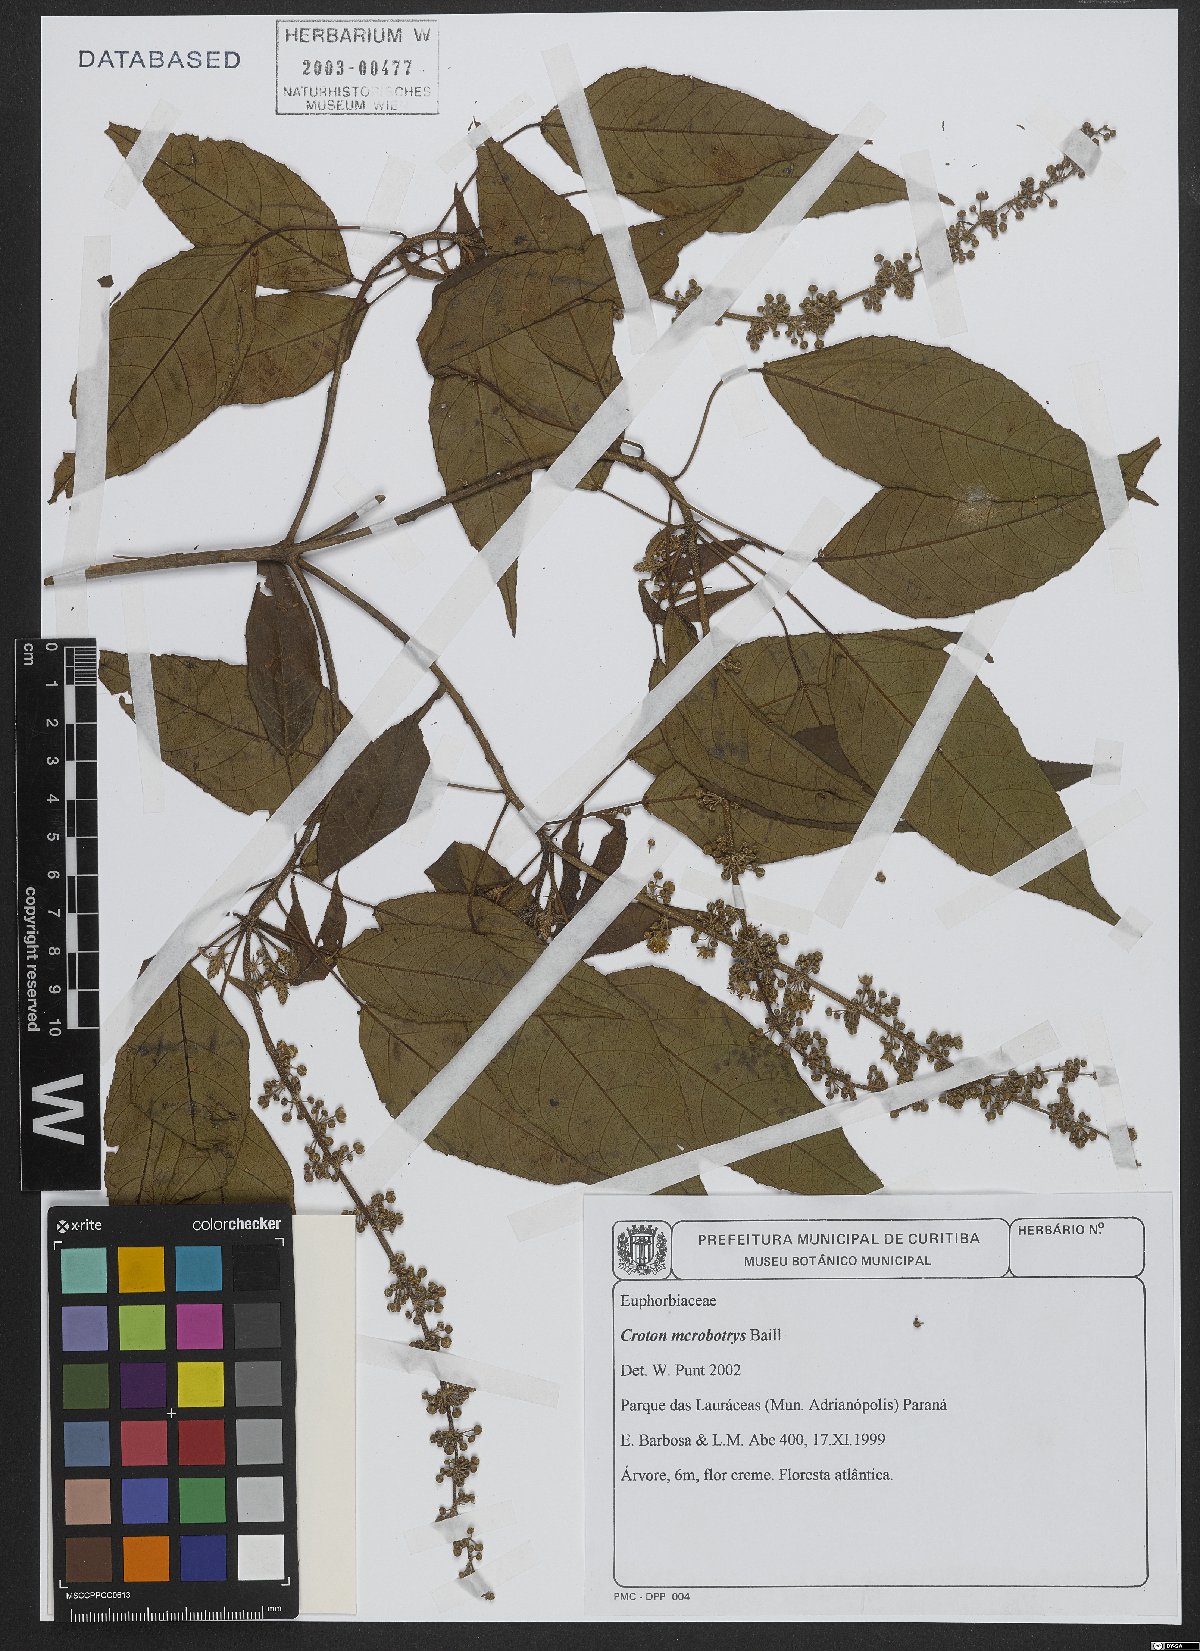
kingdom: Plantae
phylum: Tracheophyta
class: Magnoliopsida
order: Malpighiales
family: Euphorbiaceae
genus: Croton
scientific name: Croton macrobothrys
